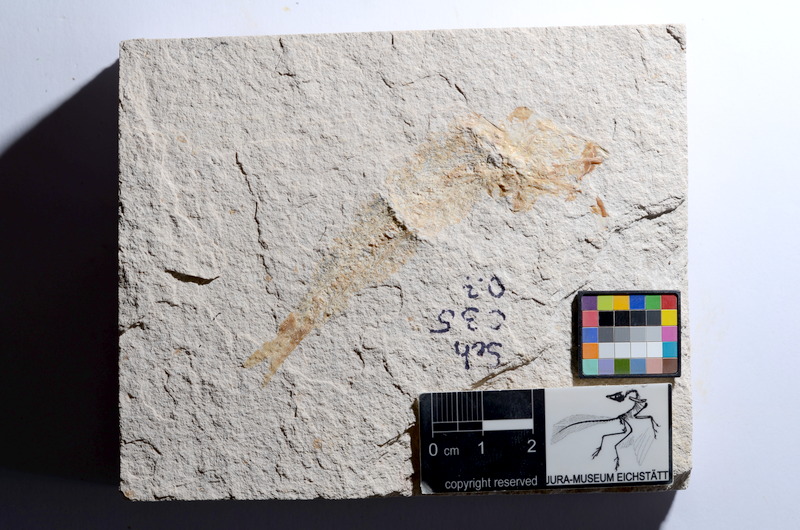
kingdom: Animalia
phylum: Chordata
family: Ascalaboidae
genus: Tharsis
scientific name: Tharsis dubius
